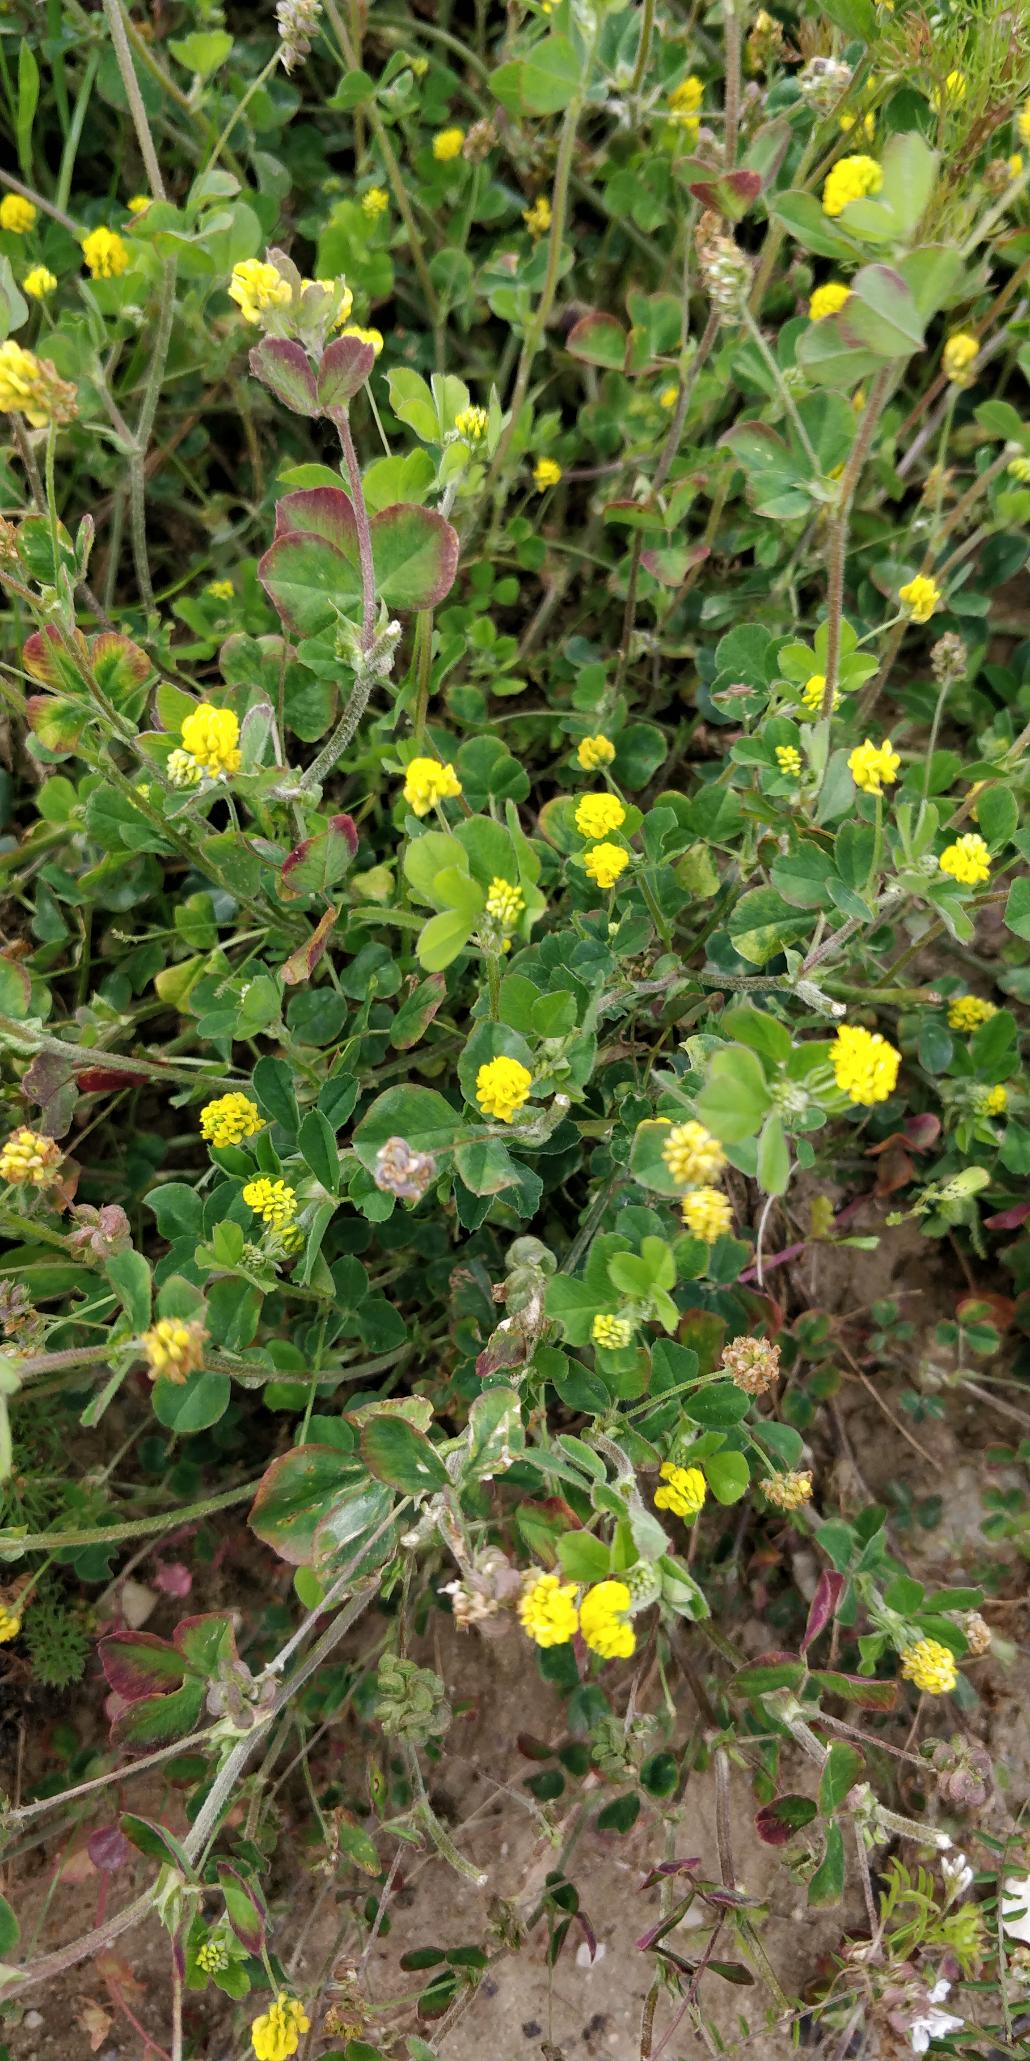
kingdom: Plantae
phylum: Tracheophyta
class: Magnoliopsida
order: Fabales
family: Fabaceae
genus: Medicago
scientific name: Medicago lupulina
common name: Humle-sneglebælg
